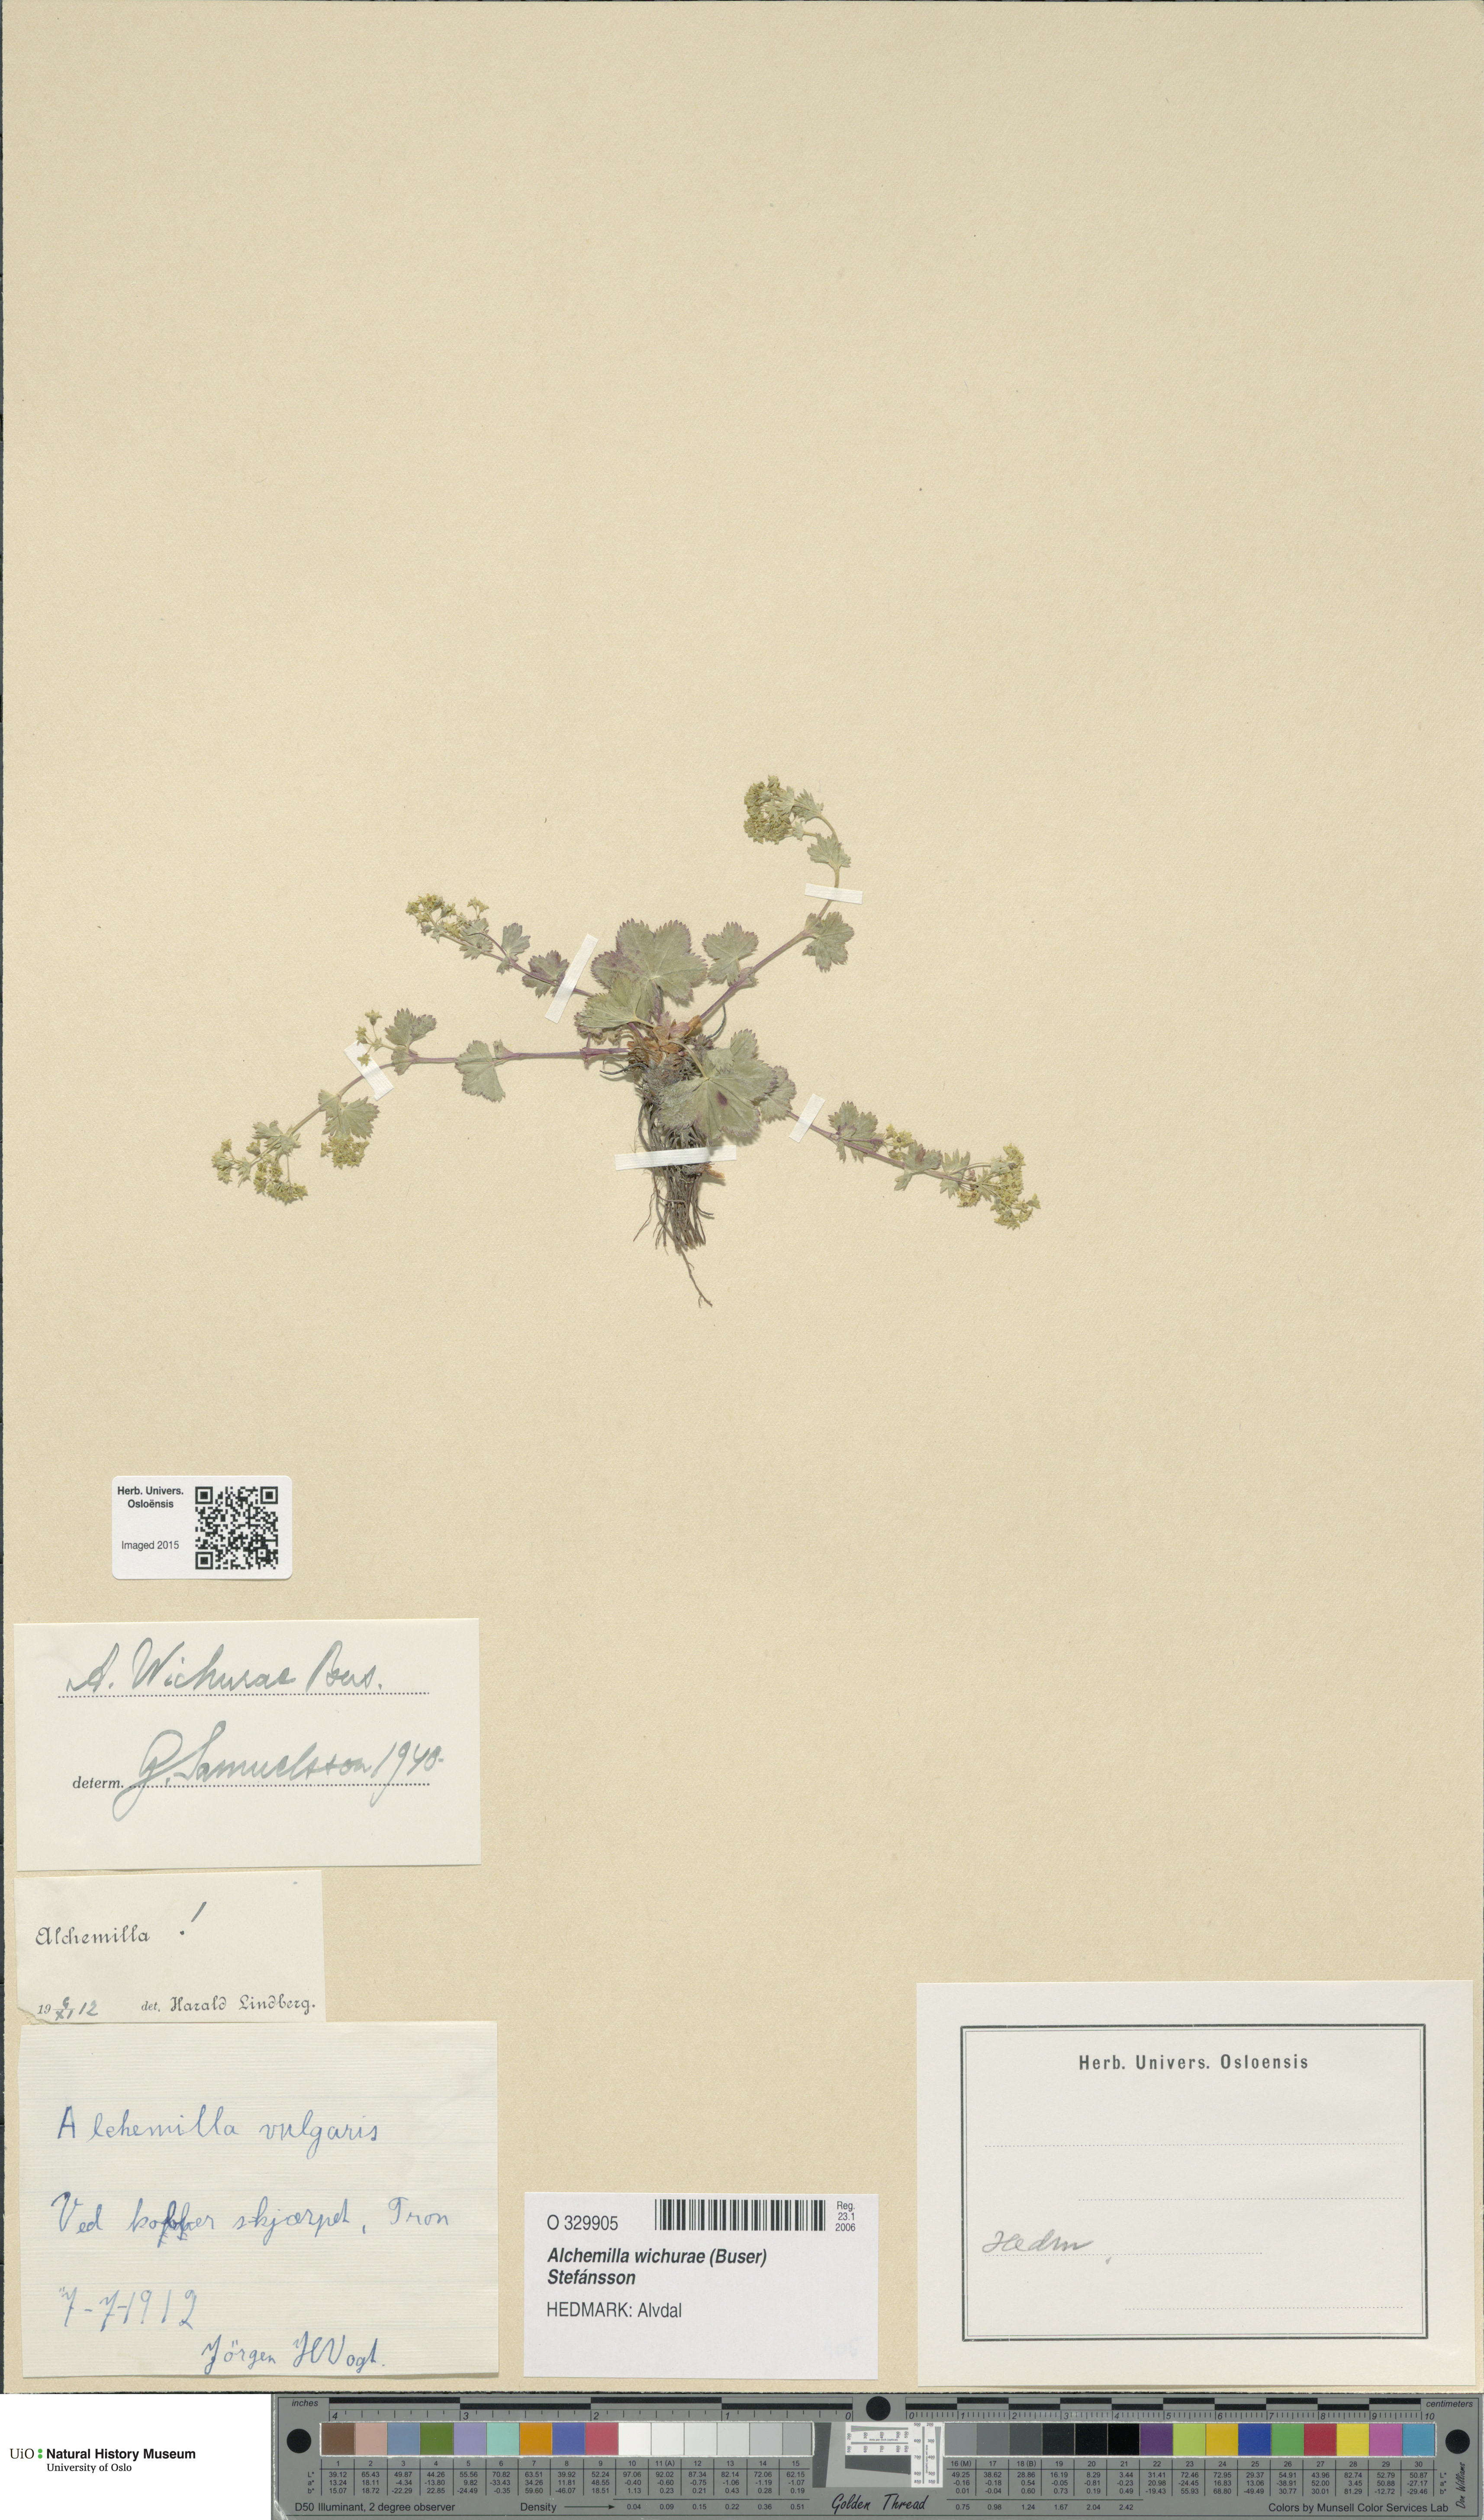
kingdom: Plantae
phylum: Tracheophyta
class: Magnoliopsida
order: Rosales
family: Rosaceae
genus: Alchemilla
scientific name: Alchemilla wichurae
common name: Rock lady's mantle
